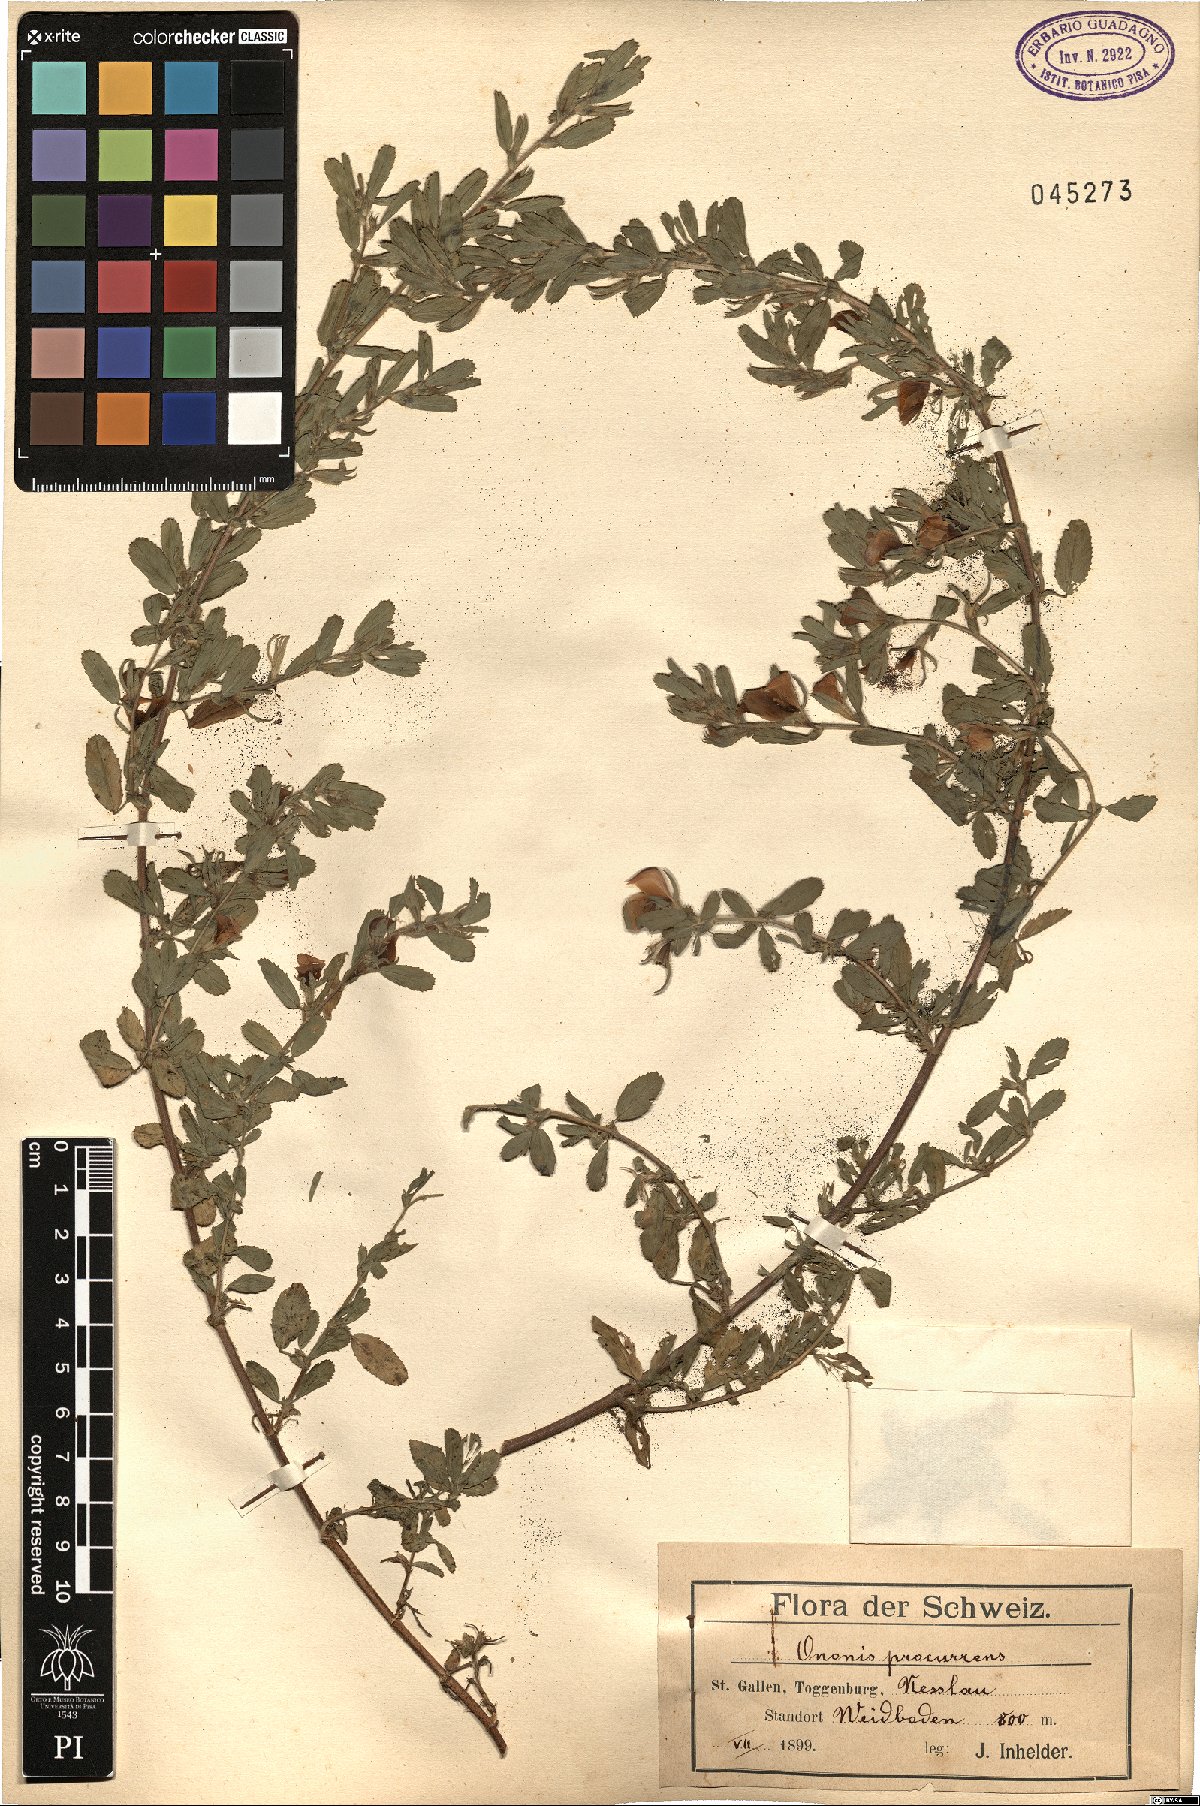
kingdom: Plantae
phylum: Tracheophyta
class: Magnoliopsida
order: Fabales
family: Fabaceae
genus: Ononis
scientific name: Ononis spinosa
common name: Spiny restharrow
